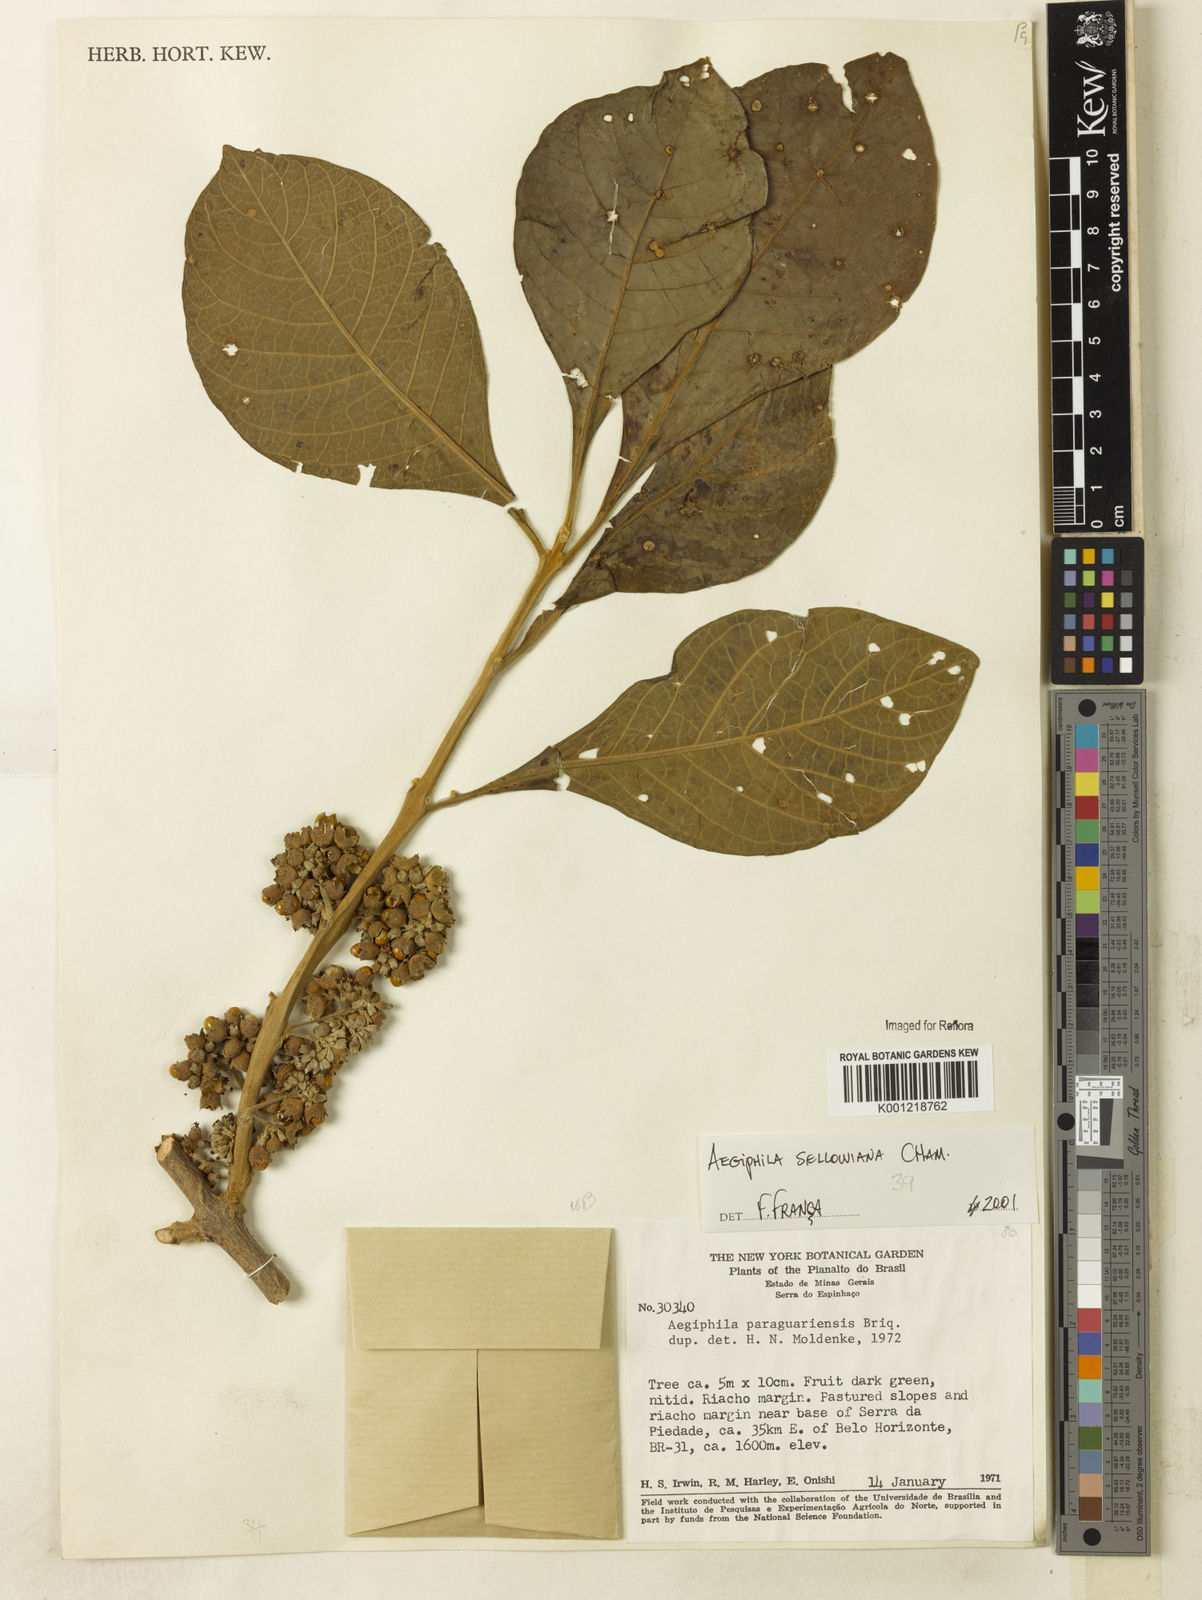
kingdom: Plantae
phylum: Tracheophyta
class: Magnoliopsida
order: Lamiales
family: Lamiaceae
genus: Aegiphila
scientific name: Aegiphila verticillata
